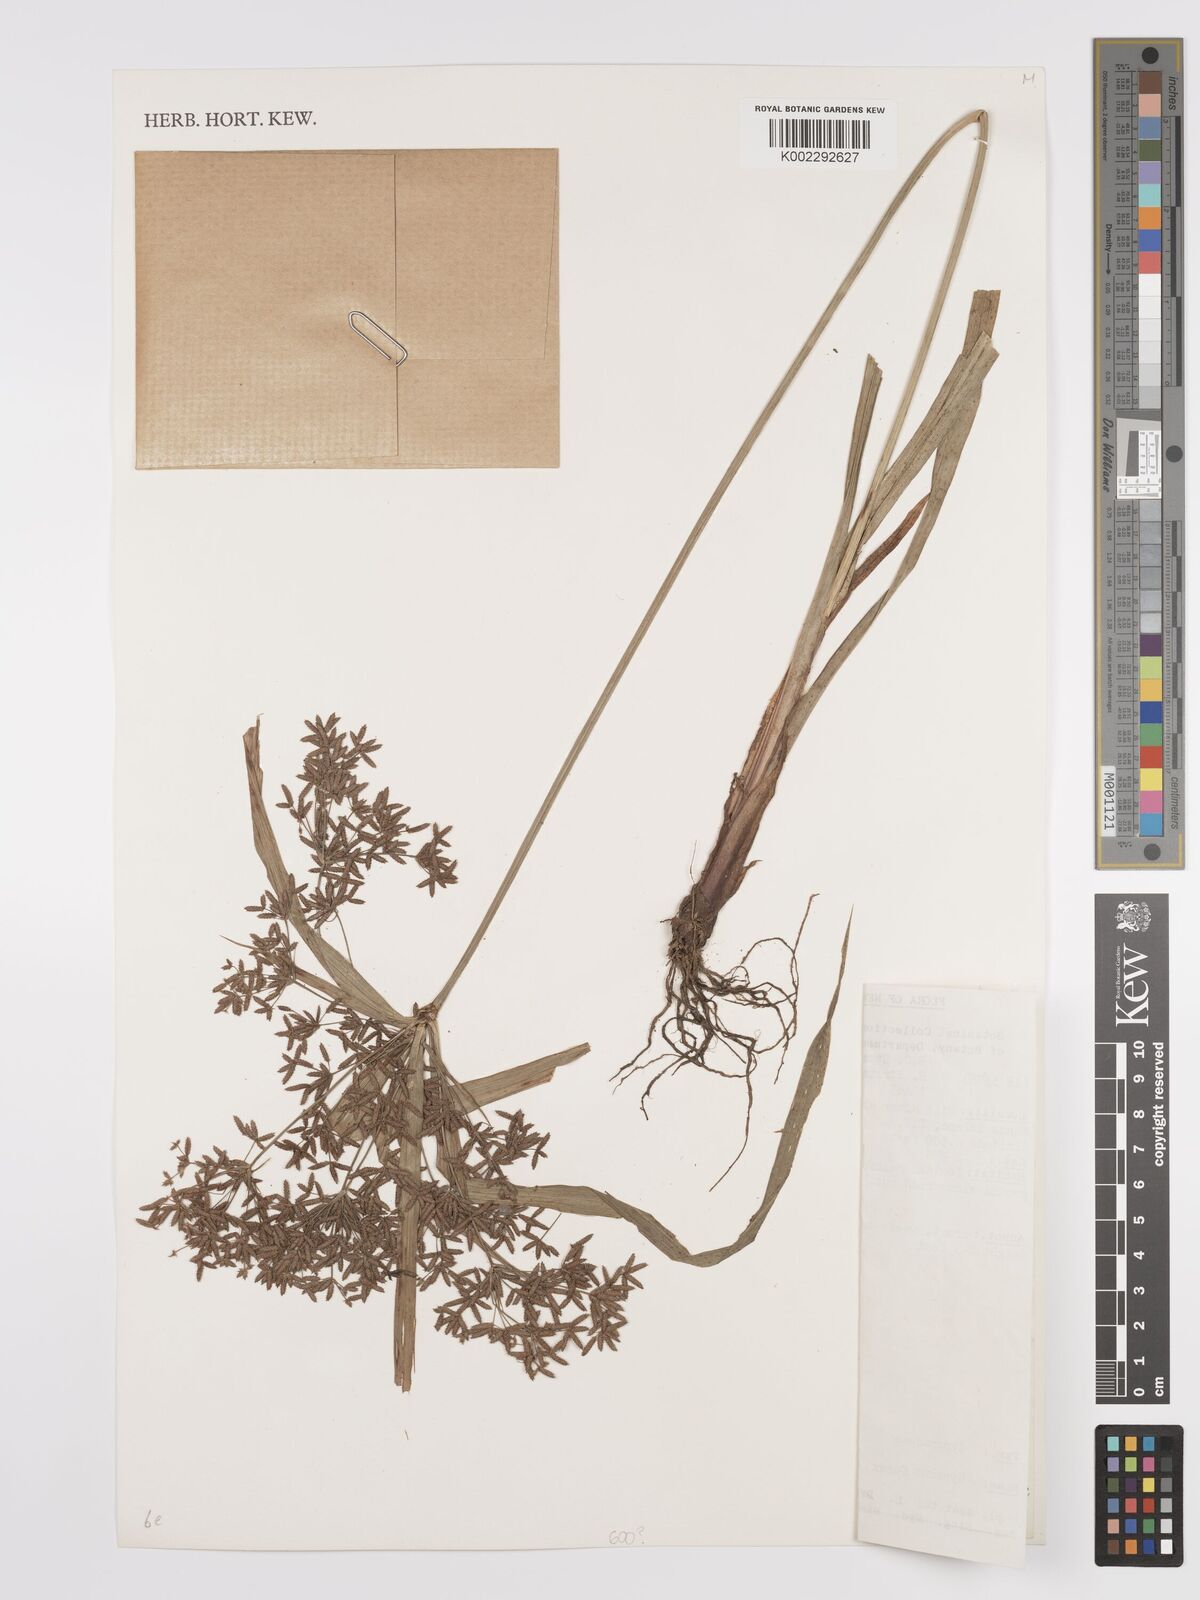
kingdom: Plantae
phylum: Tracheophyta
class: Liliopsida
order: Poales
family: Cyperaceae
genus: Cyperus
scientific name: Cyperus odoratus
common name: Fragrant flatsedge
